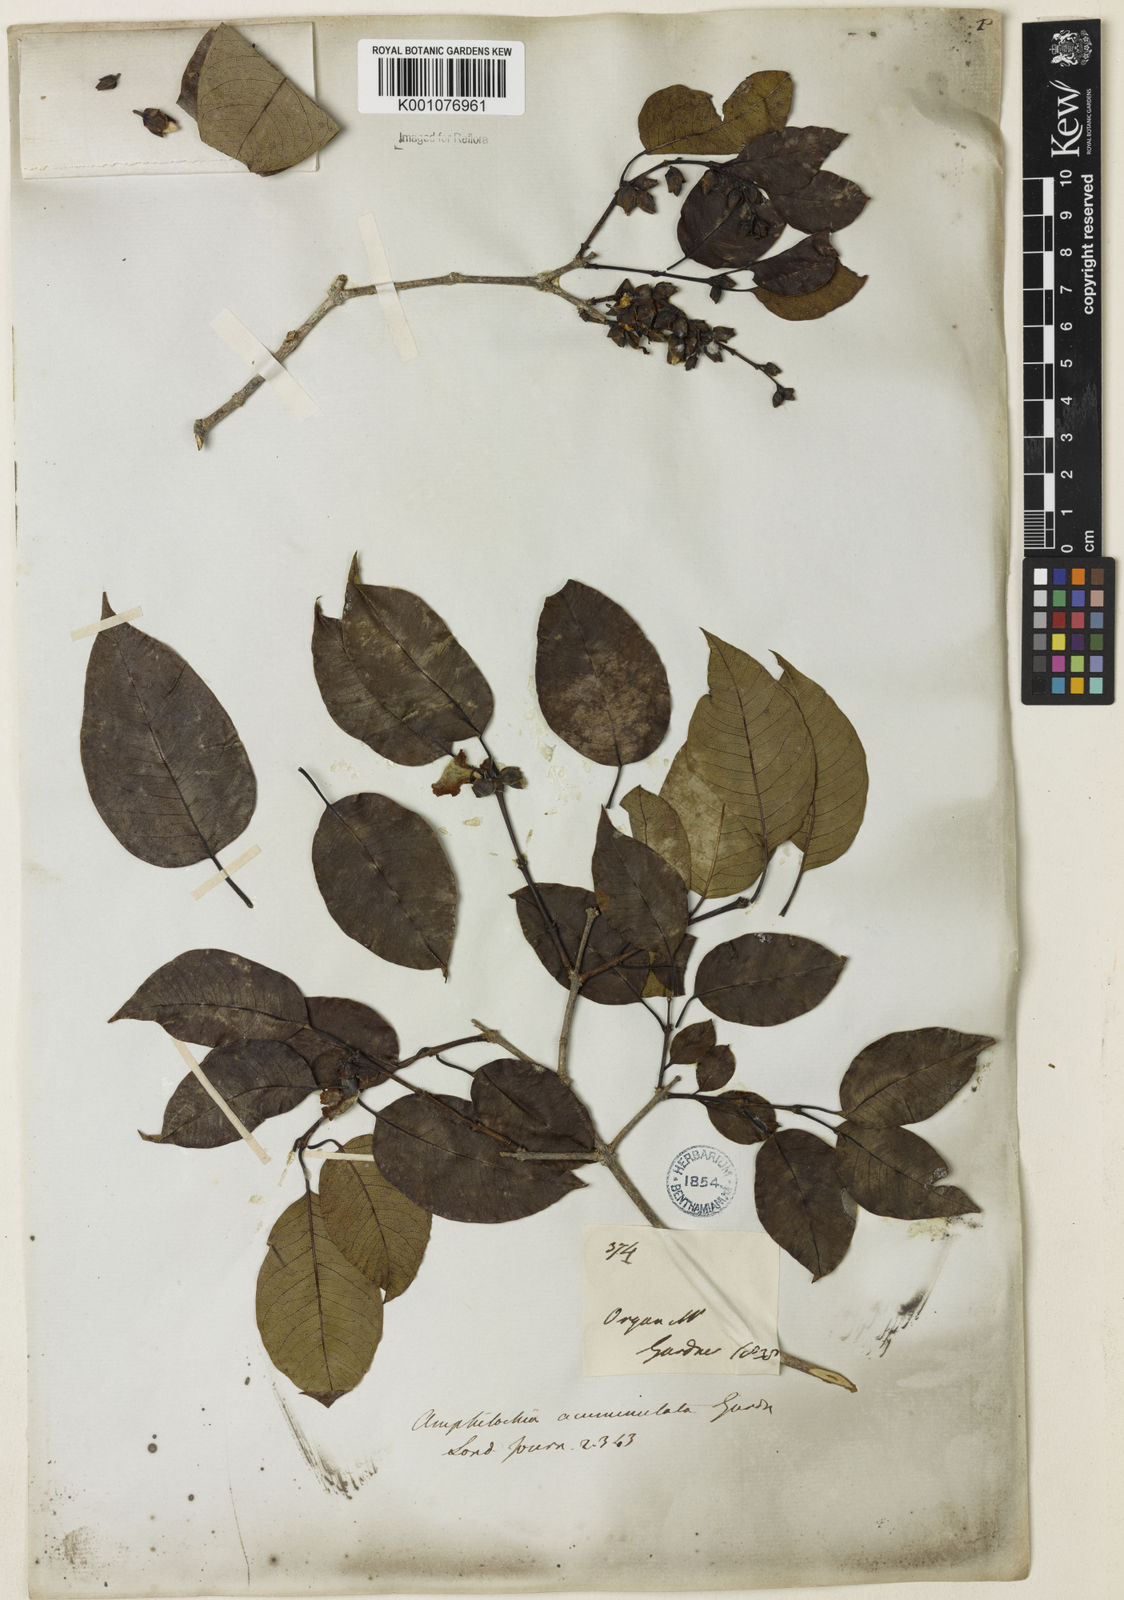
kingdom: Plantae
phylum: Tracheophyta
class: Magnoliopsida
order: Myrtales
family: Vochysiaceae
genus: Qualea
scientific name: Qualea cryptantha
